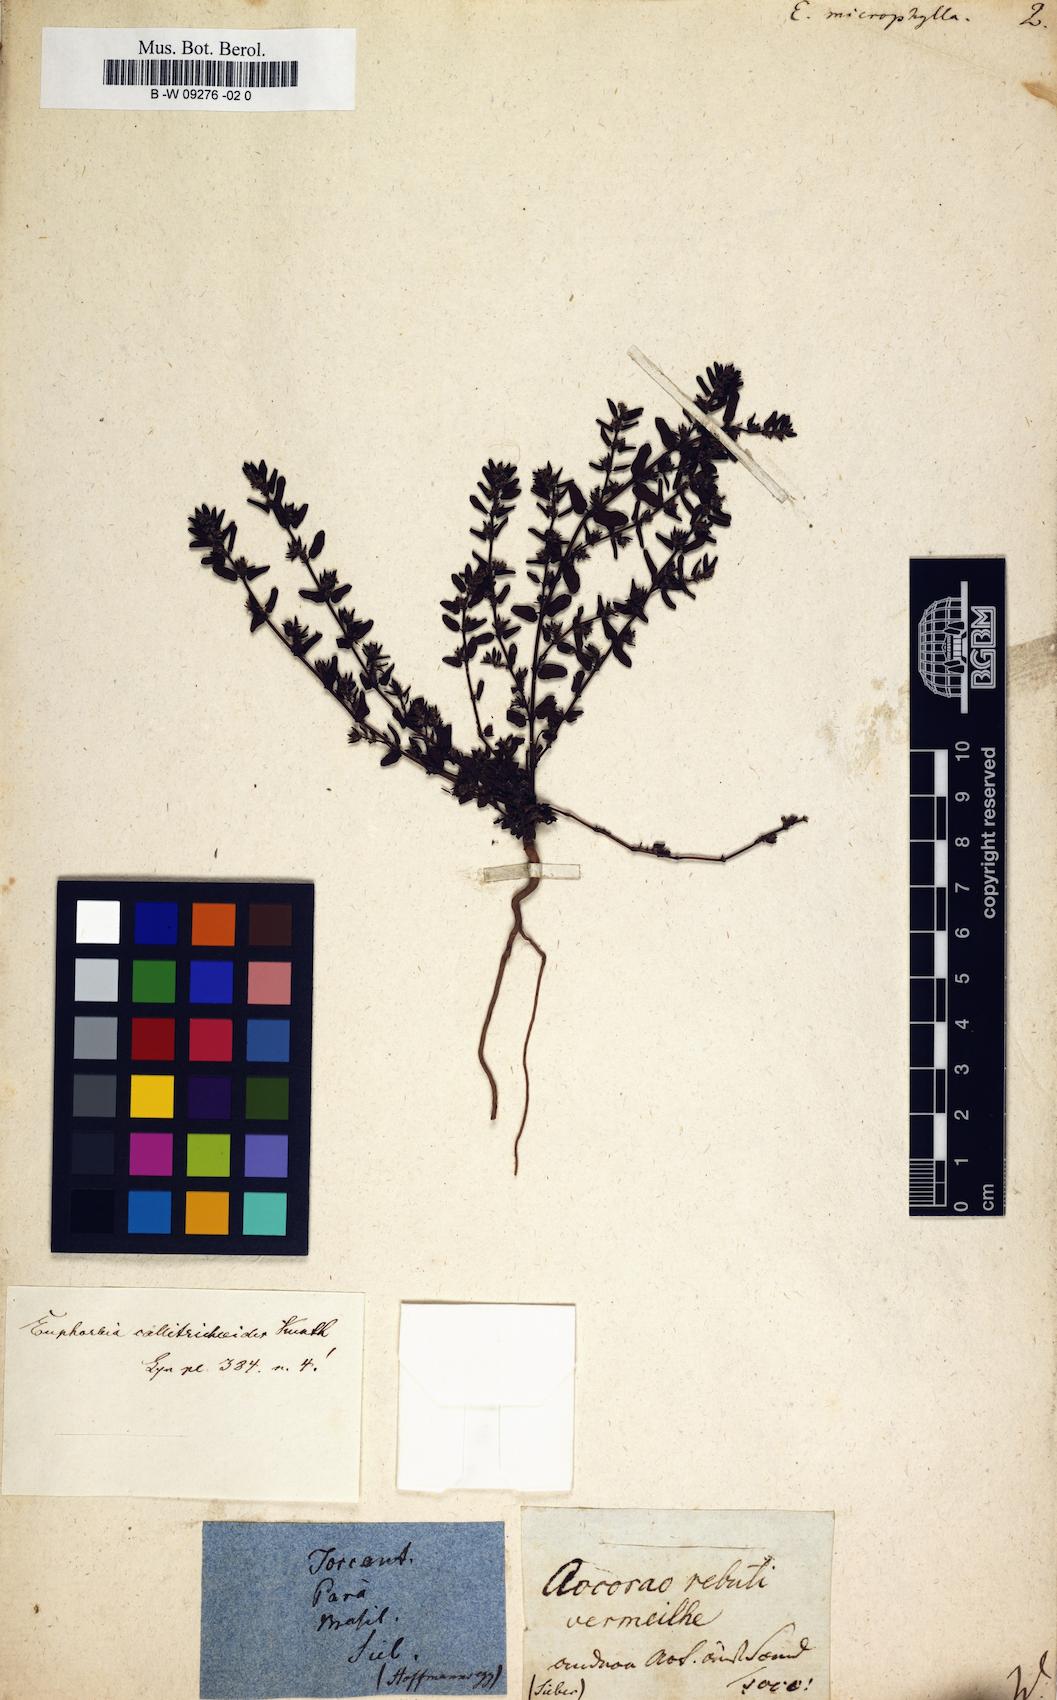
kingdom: Plantae
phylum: Tracheophyta
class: Magnoliopsida
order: Malpighiales
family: Euphorbiaceae
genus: Euphorbia
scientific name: Euphorbia
